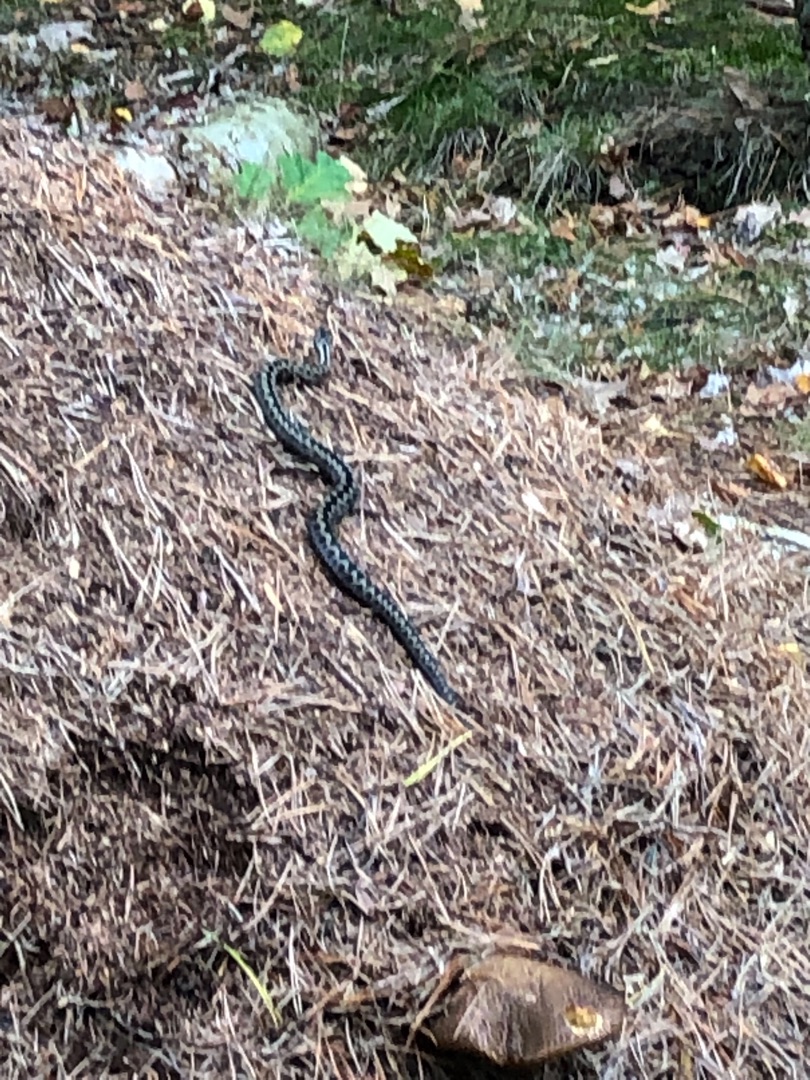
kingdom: Animalia
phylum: Chordata
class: Squamata
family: Viperidae
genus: Vipera
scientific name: Vipera berus
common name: Hugorm
